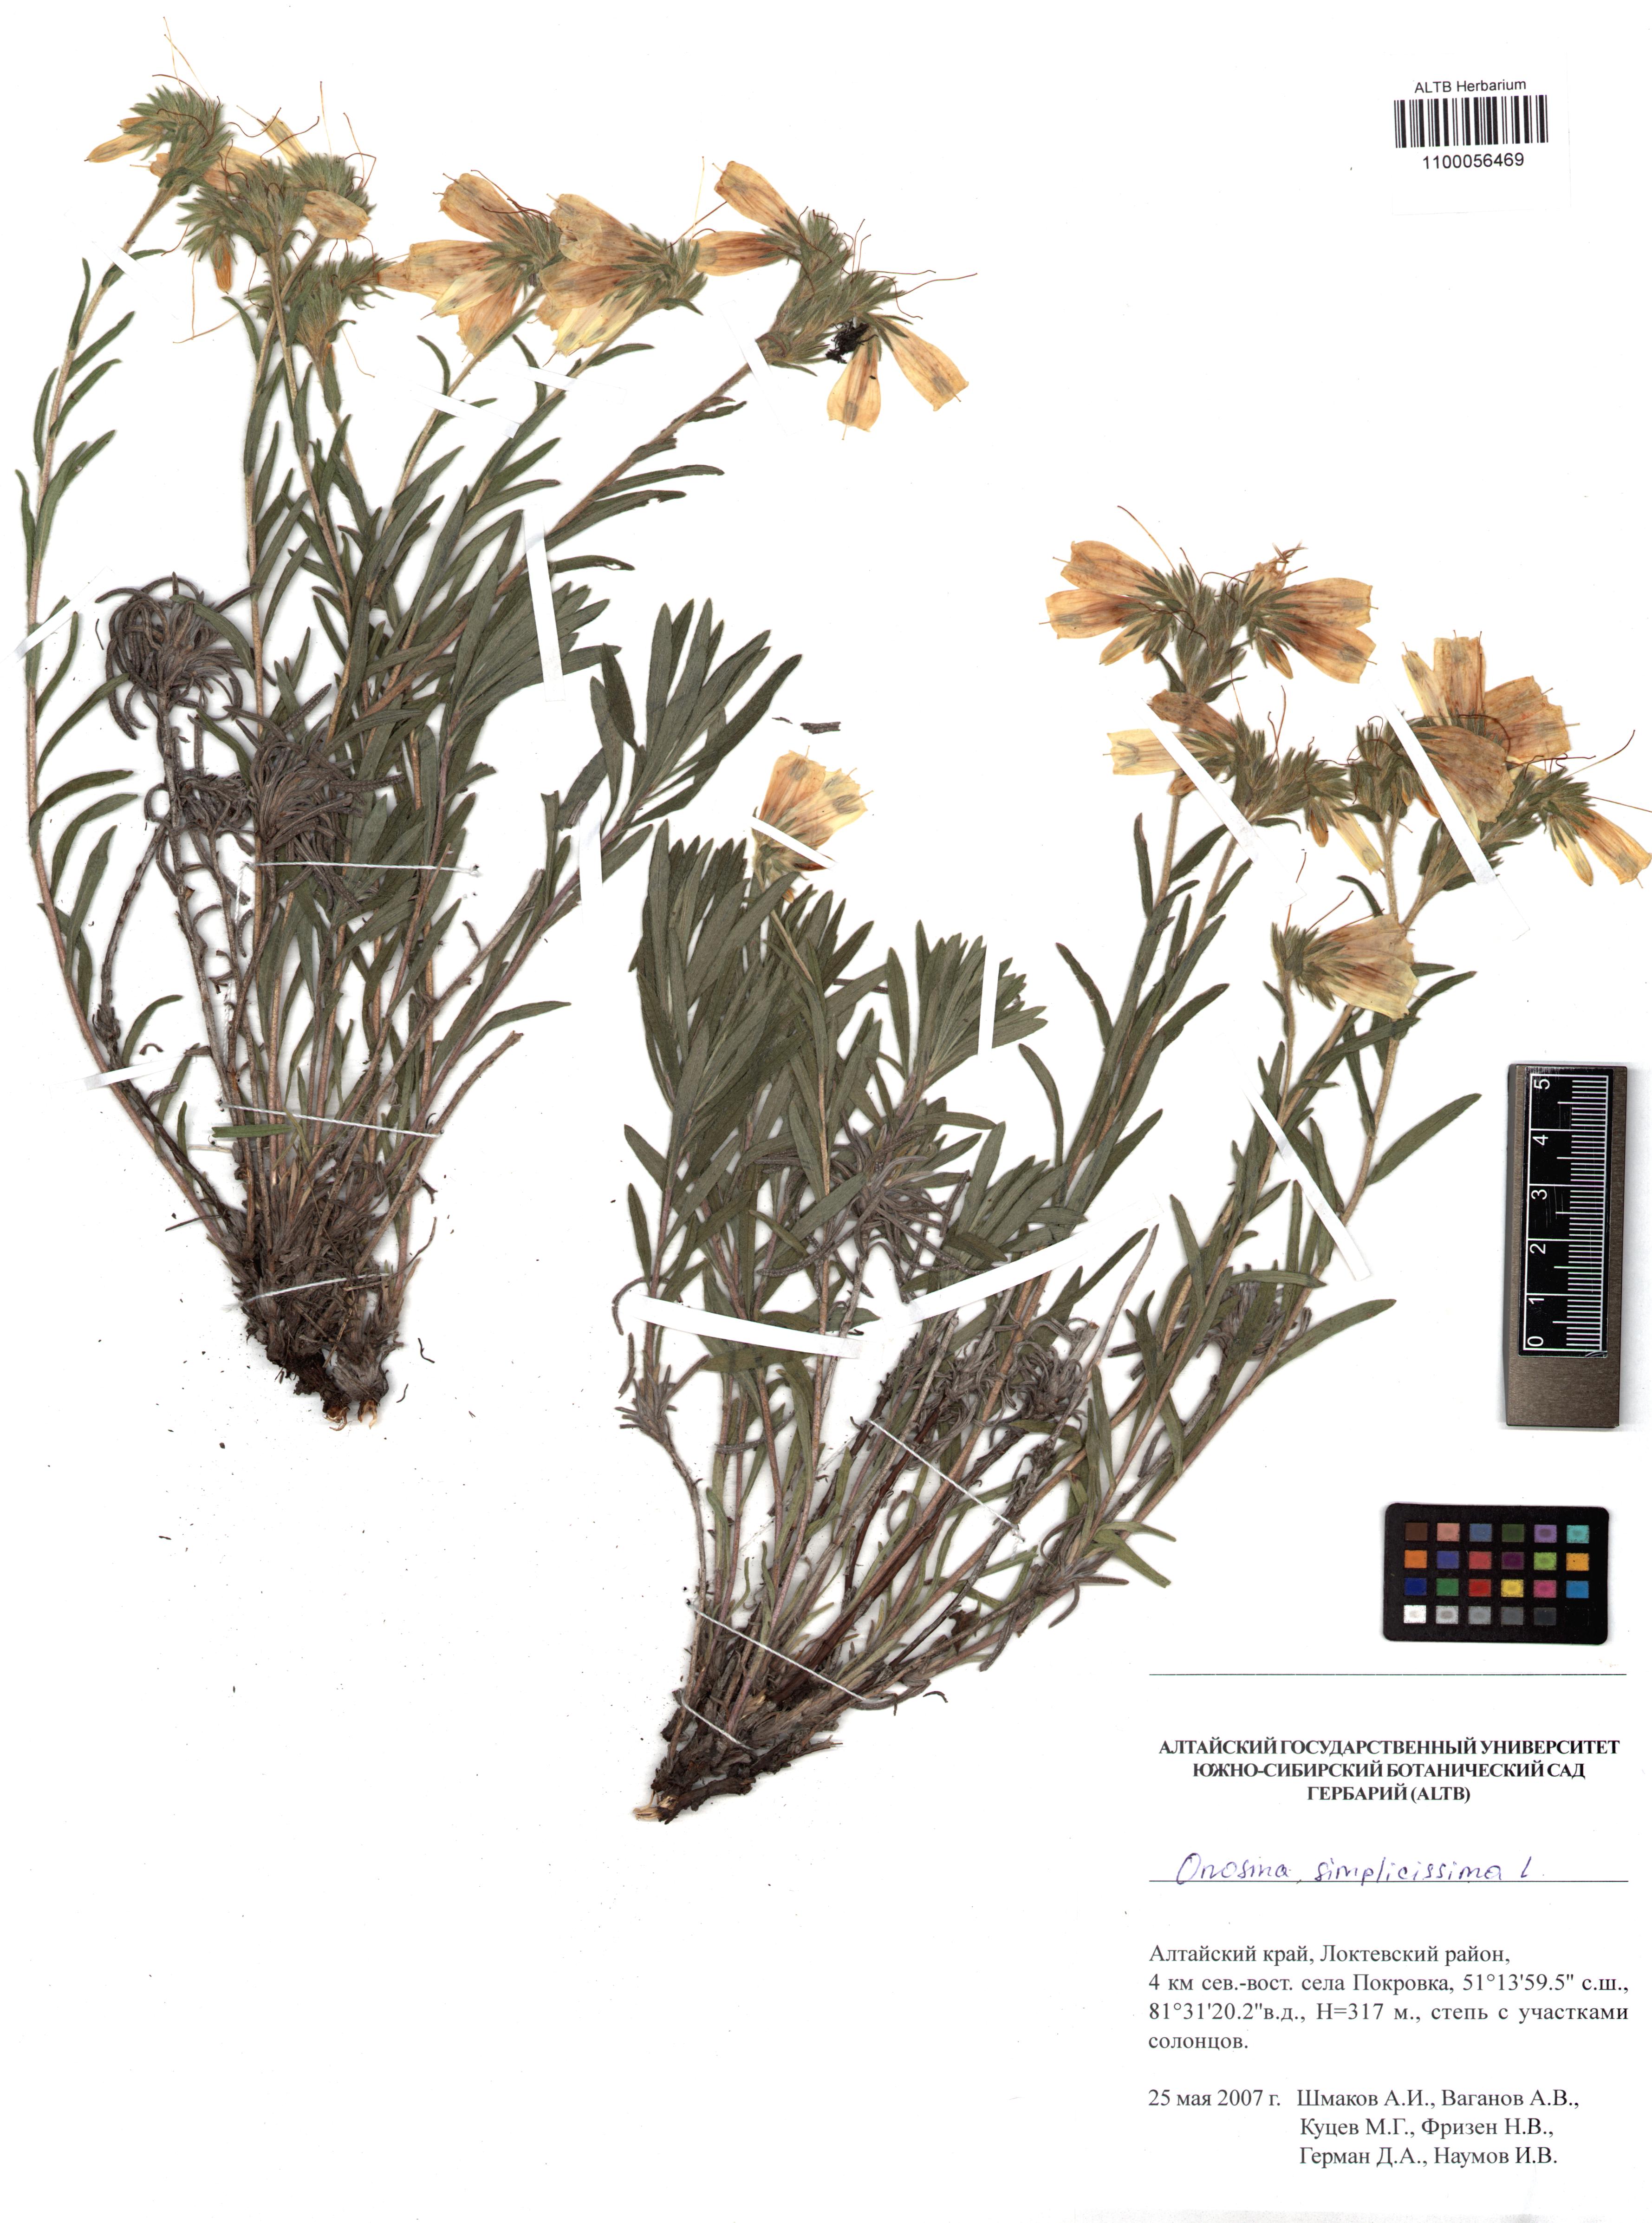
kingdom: Plantae
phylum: Tracheophyta
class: Magnoliopsida
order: Boraginales
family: Boraginaceae
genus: Onosma
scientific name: Onosma simplicissima
